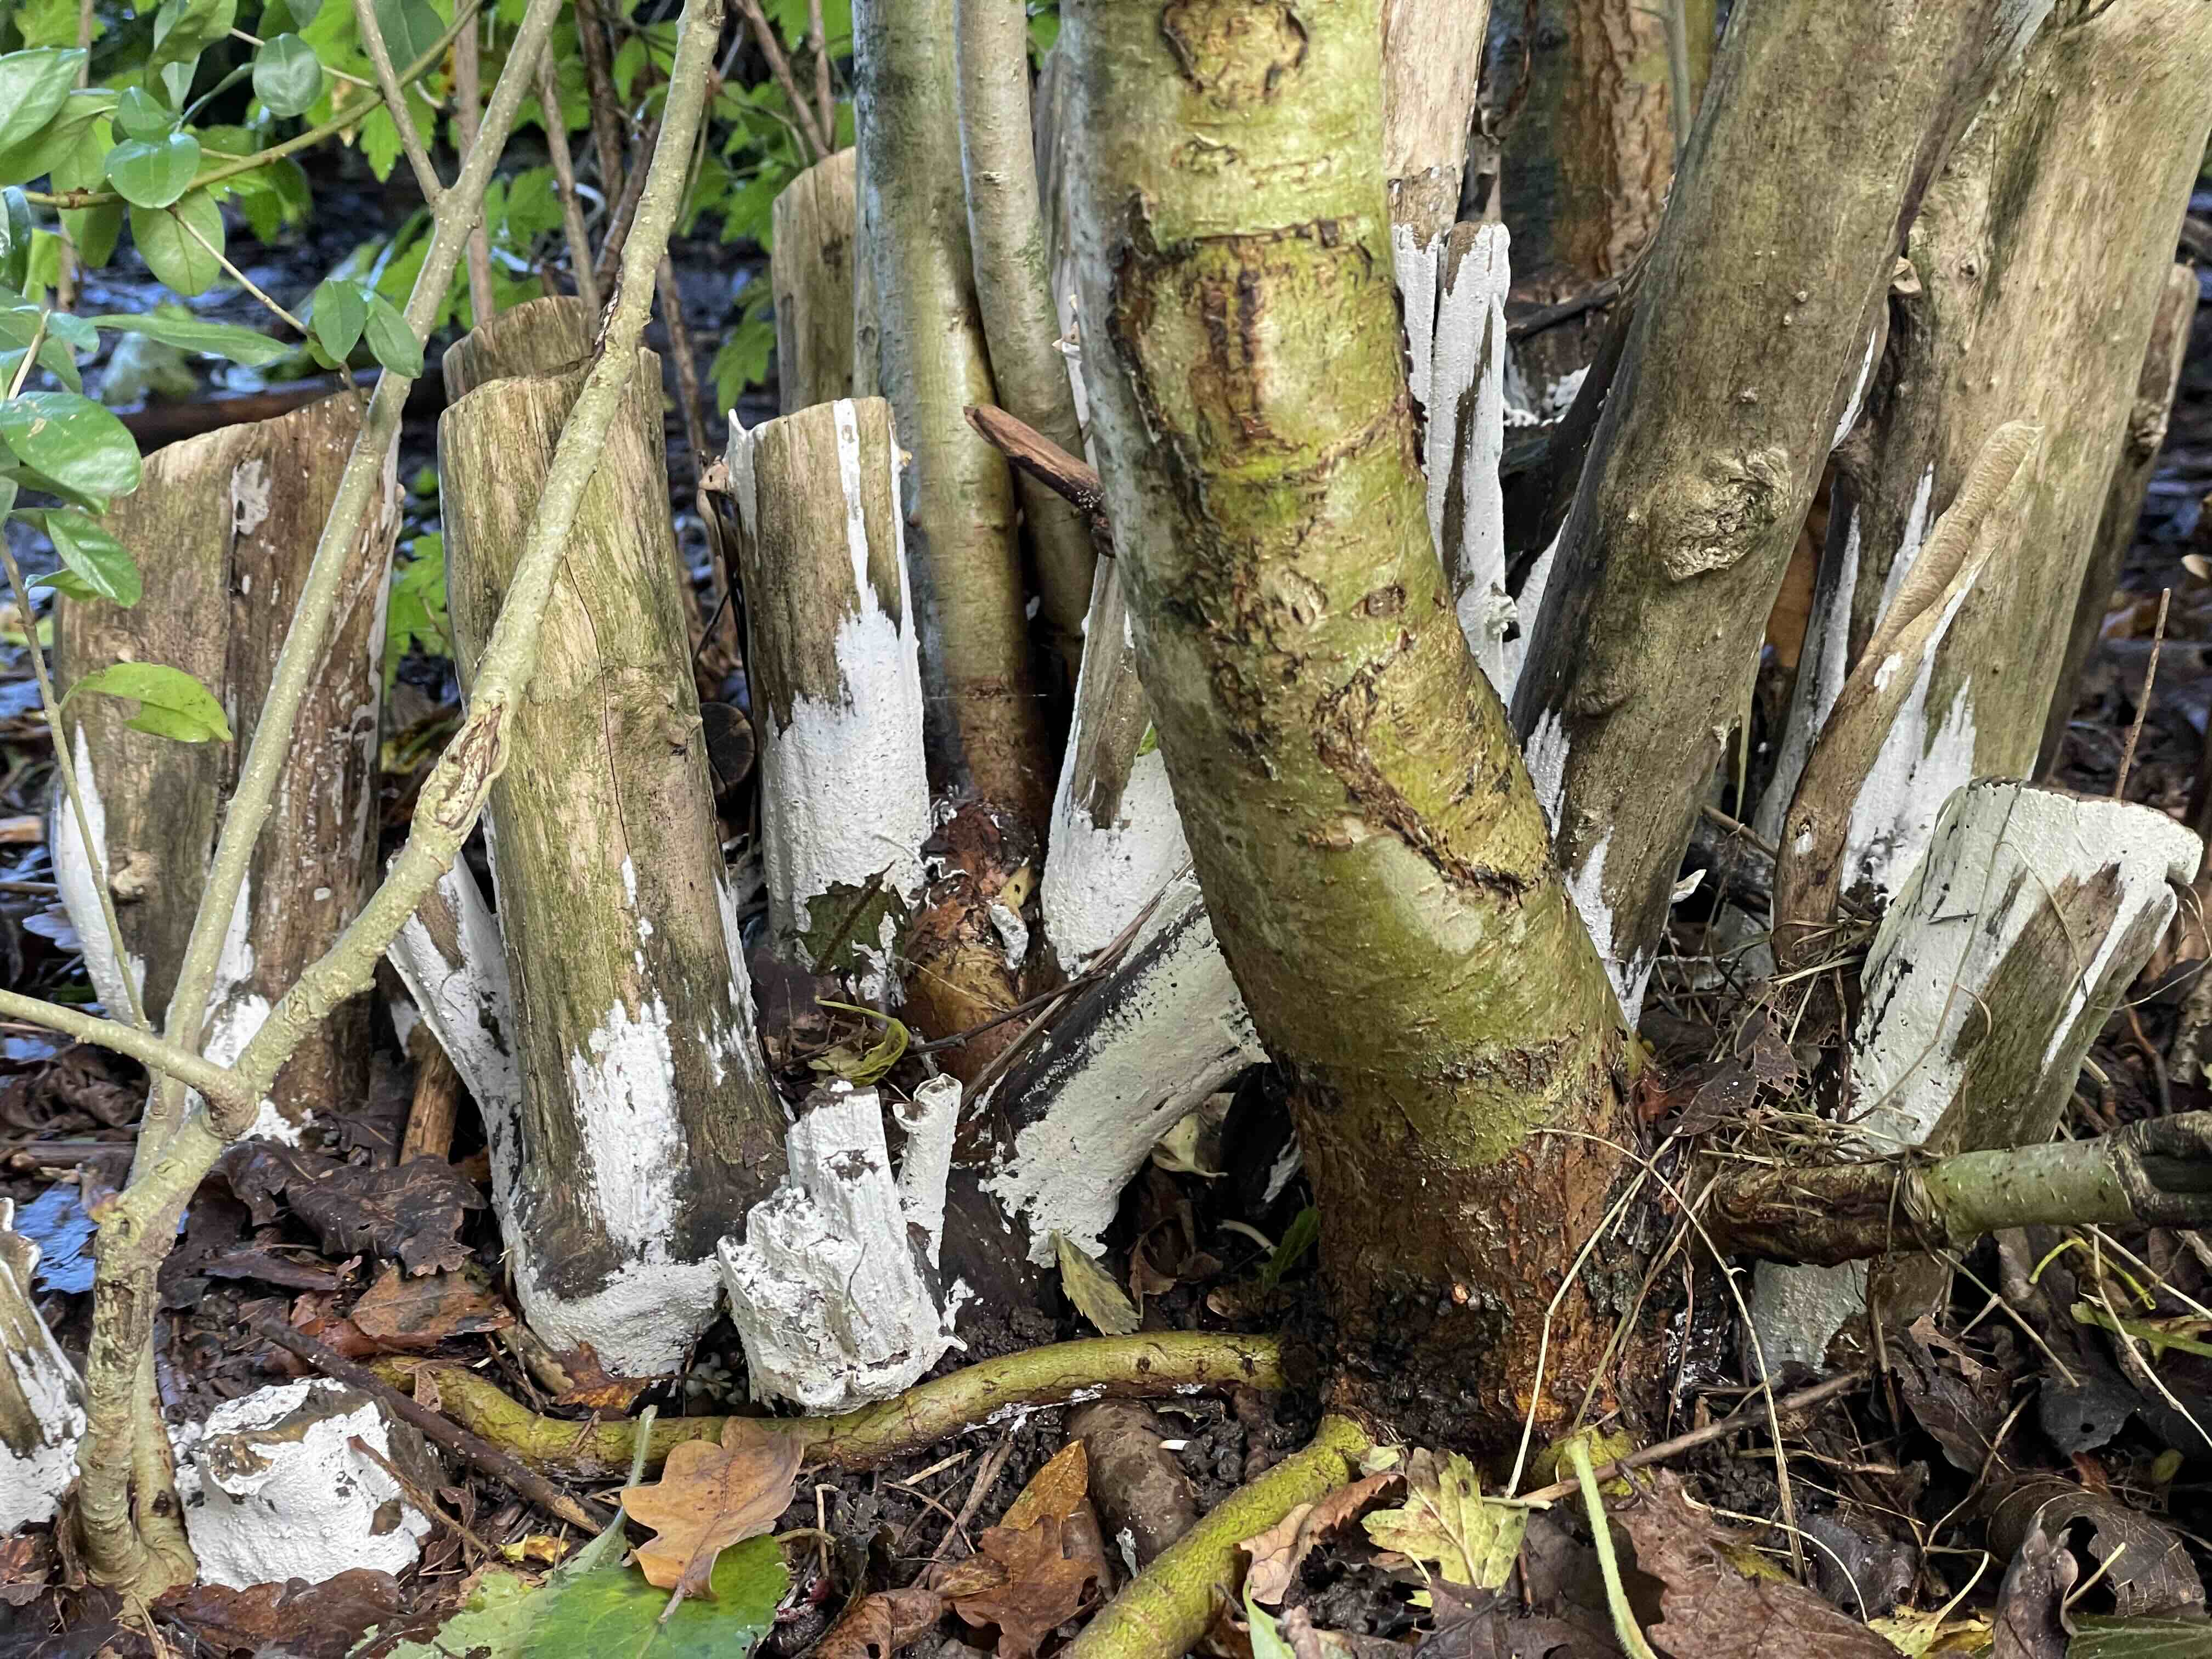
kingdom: Fungi
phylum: Basidiomycota
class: Agaricomycetes
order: Corticiales
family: Corticiaceae
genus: Lyomyces
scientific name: Lyomyces sambuci
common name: almindelig hyldehinde
